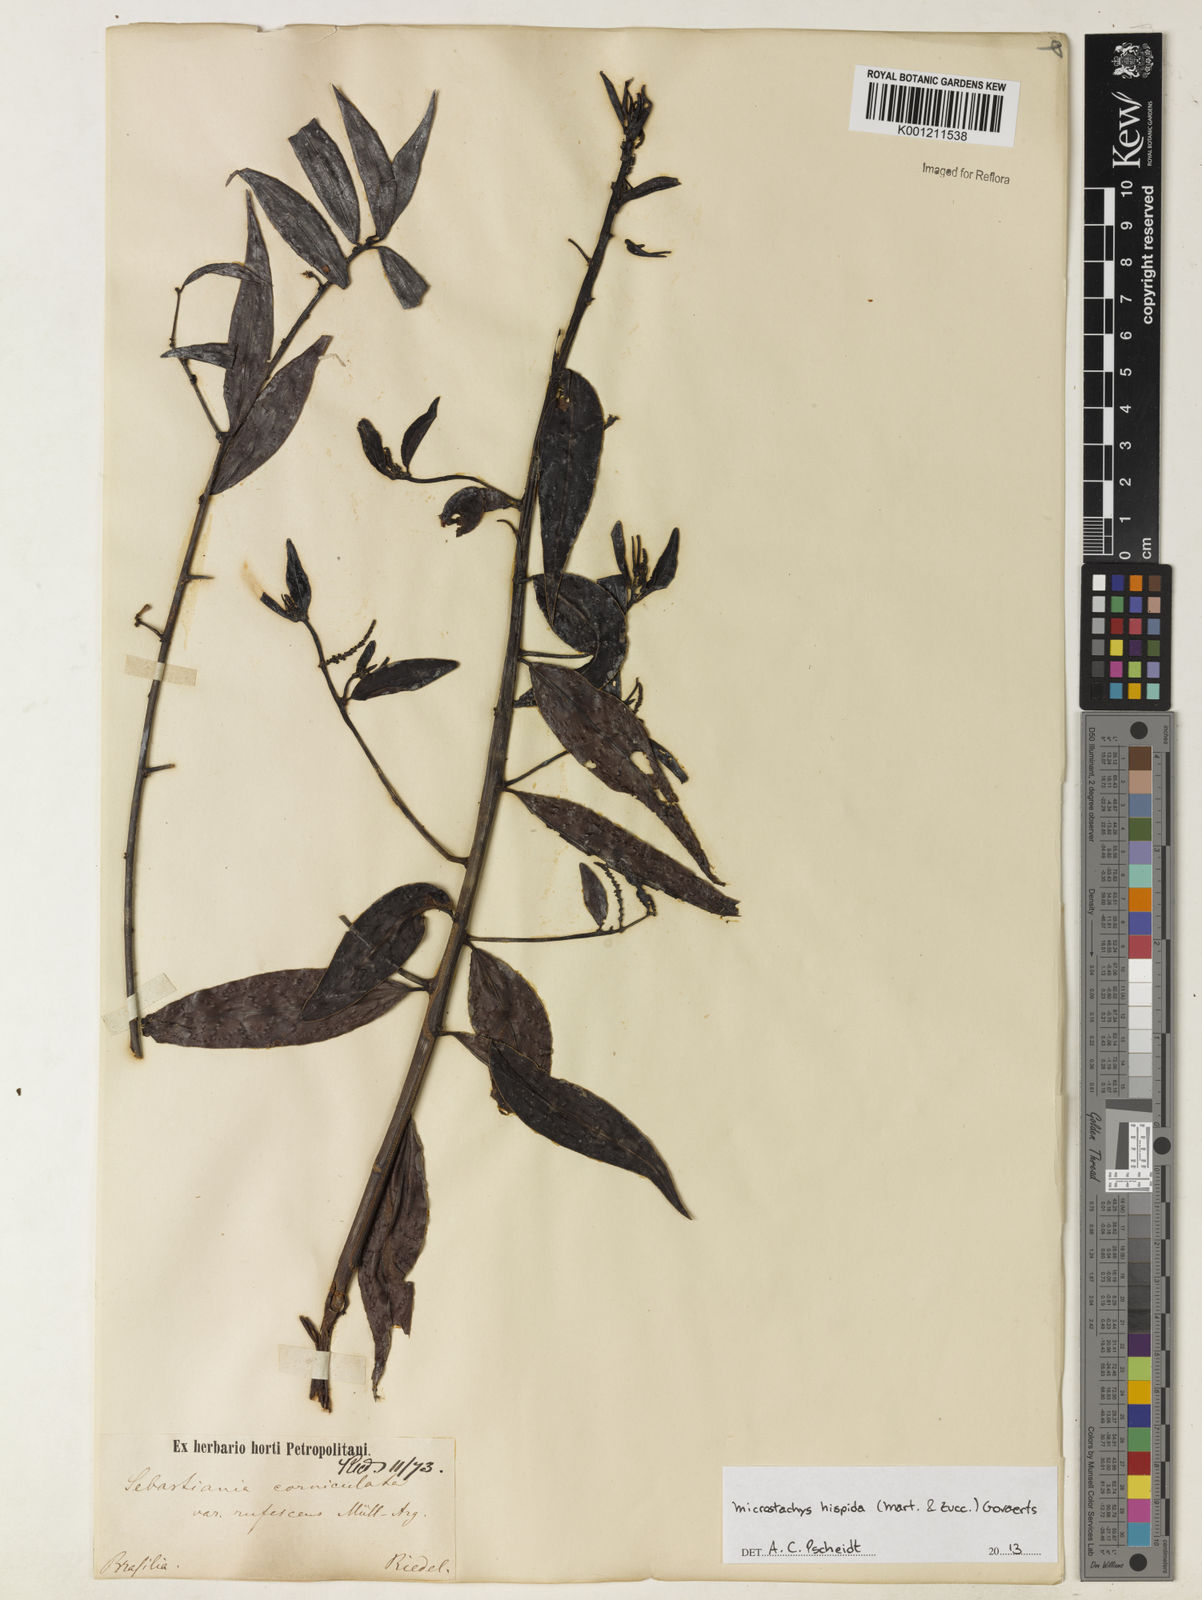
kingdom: Plantae
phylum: Tracheophyta
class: Magnoliopsida
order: Malpighiales
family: Euphorbiaceae
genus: Microstachys
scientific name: Microstachys hispida
